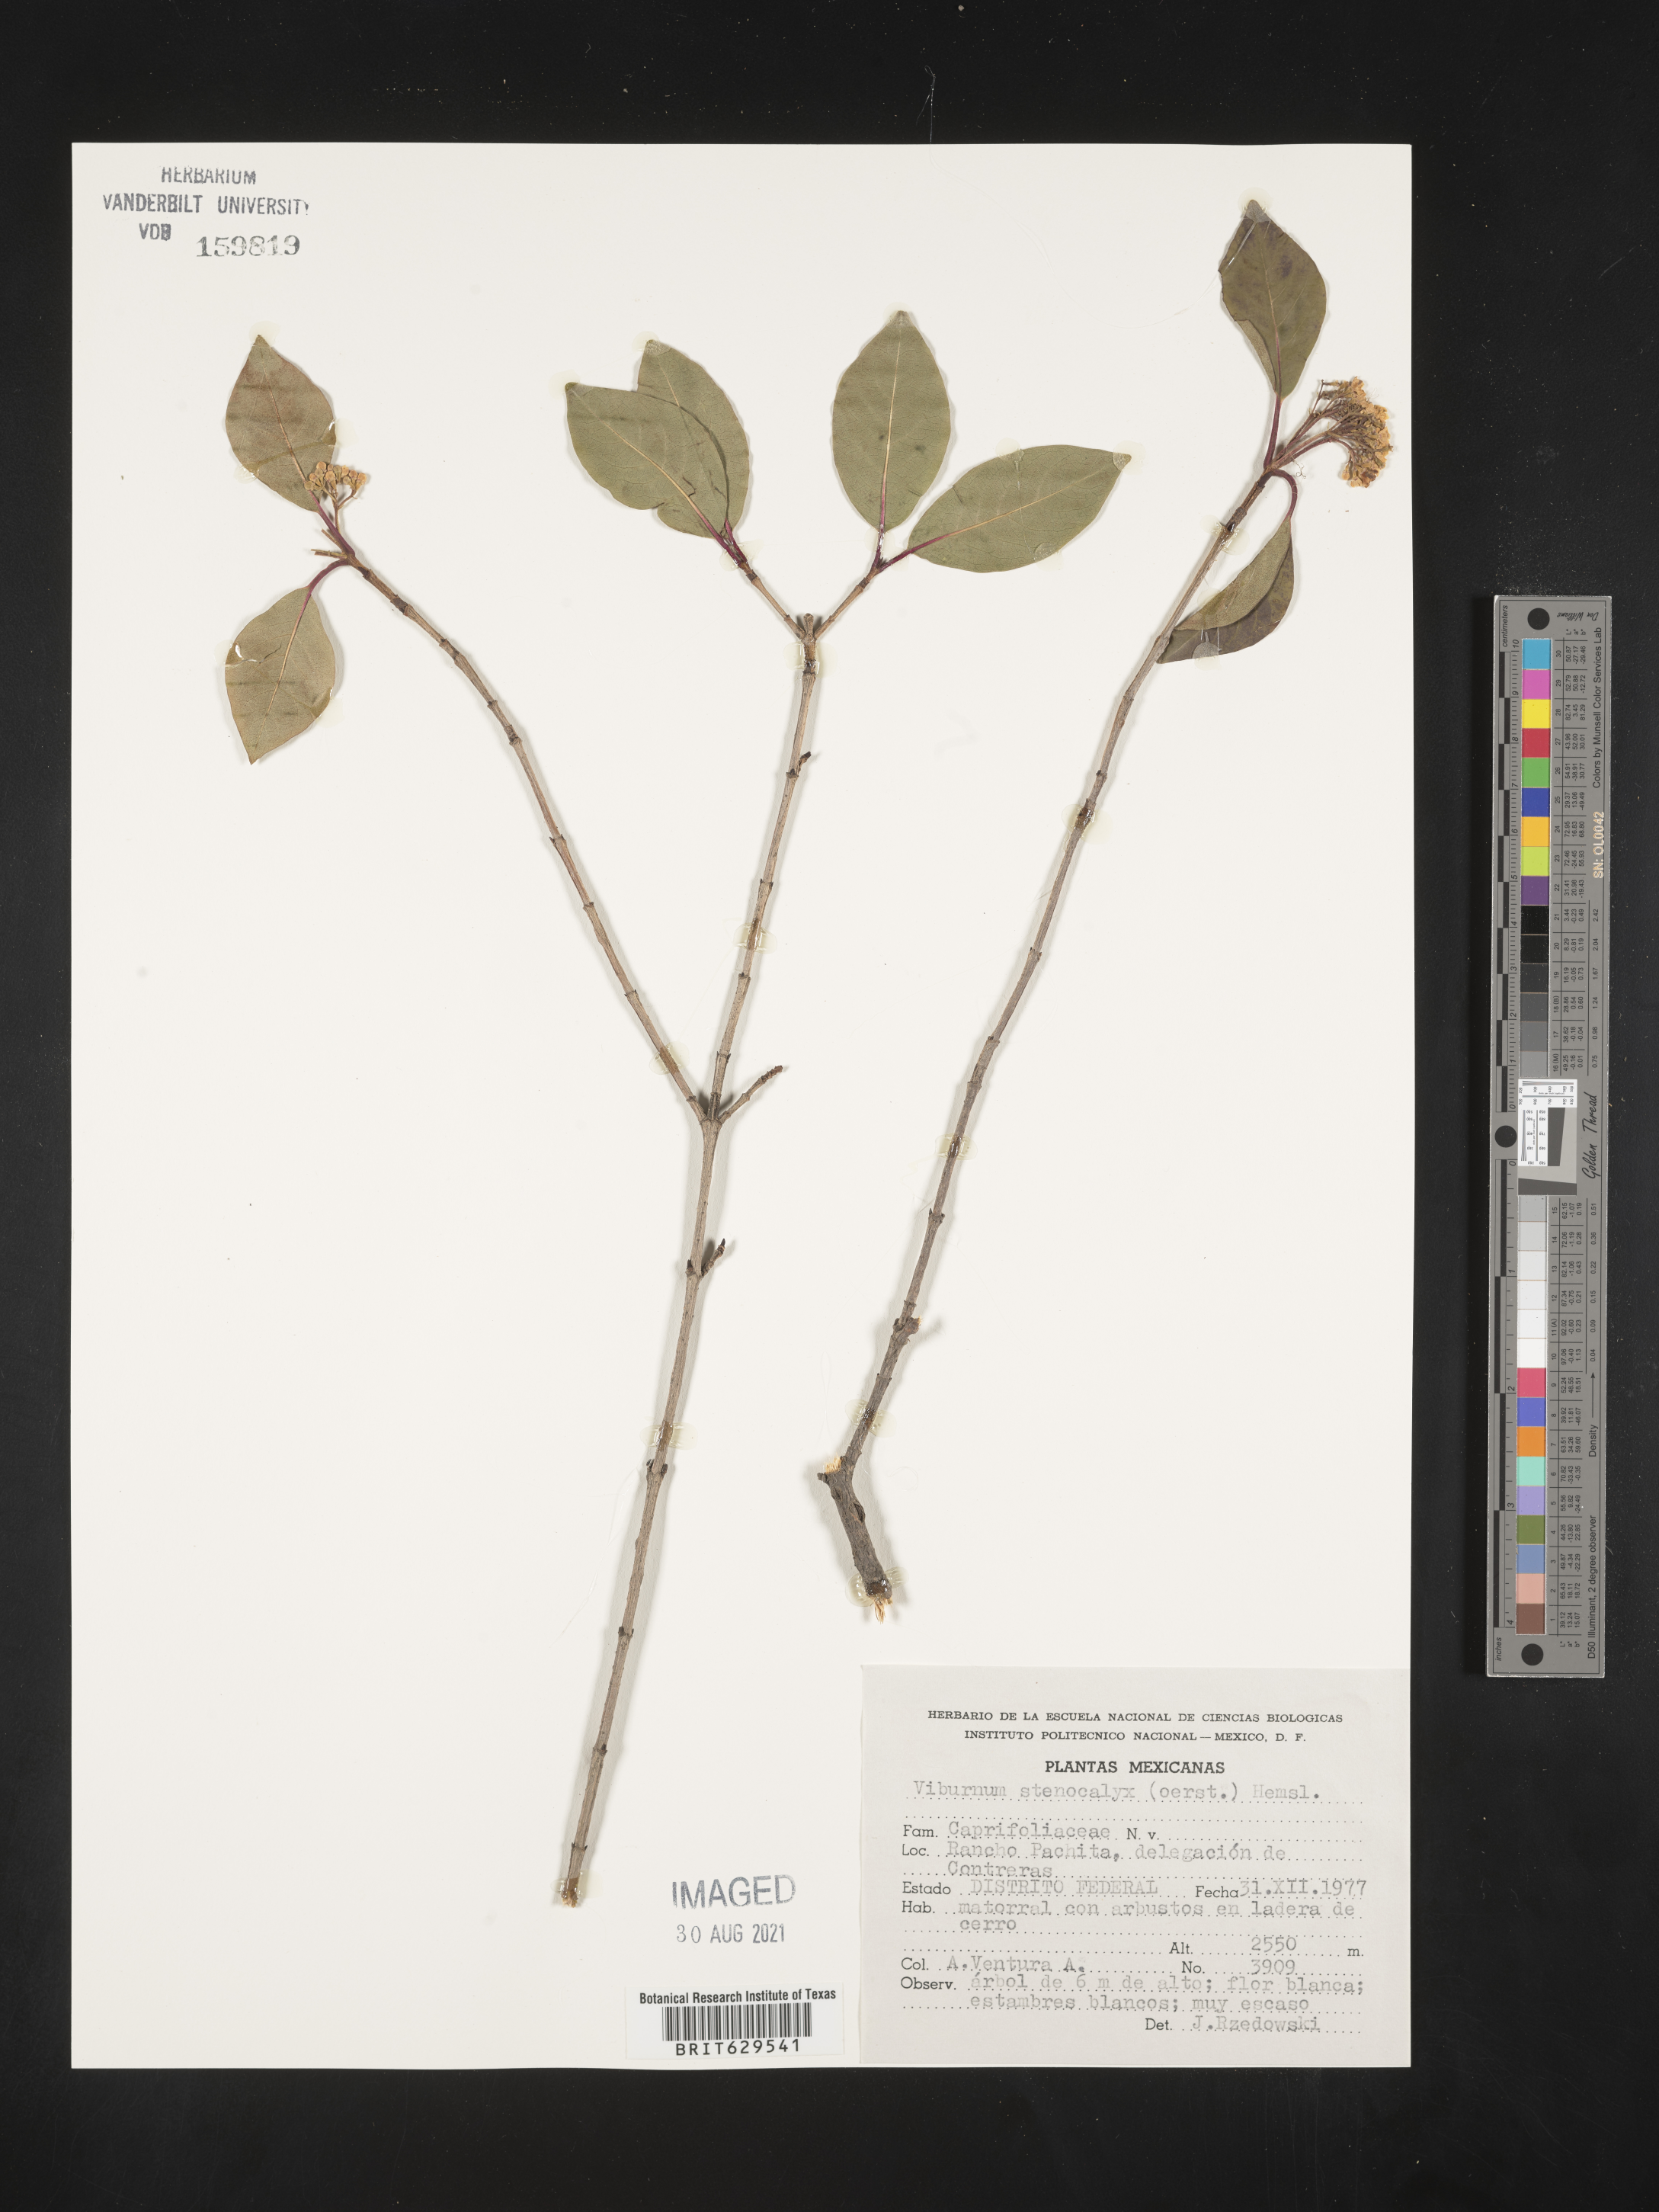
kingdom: Plantae
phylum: Tracheophyta
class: Magnoliopsida
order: Dipsacales
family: Viburnaceae
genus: Viburnum
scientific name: Viburnum
